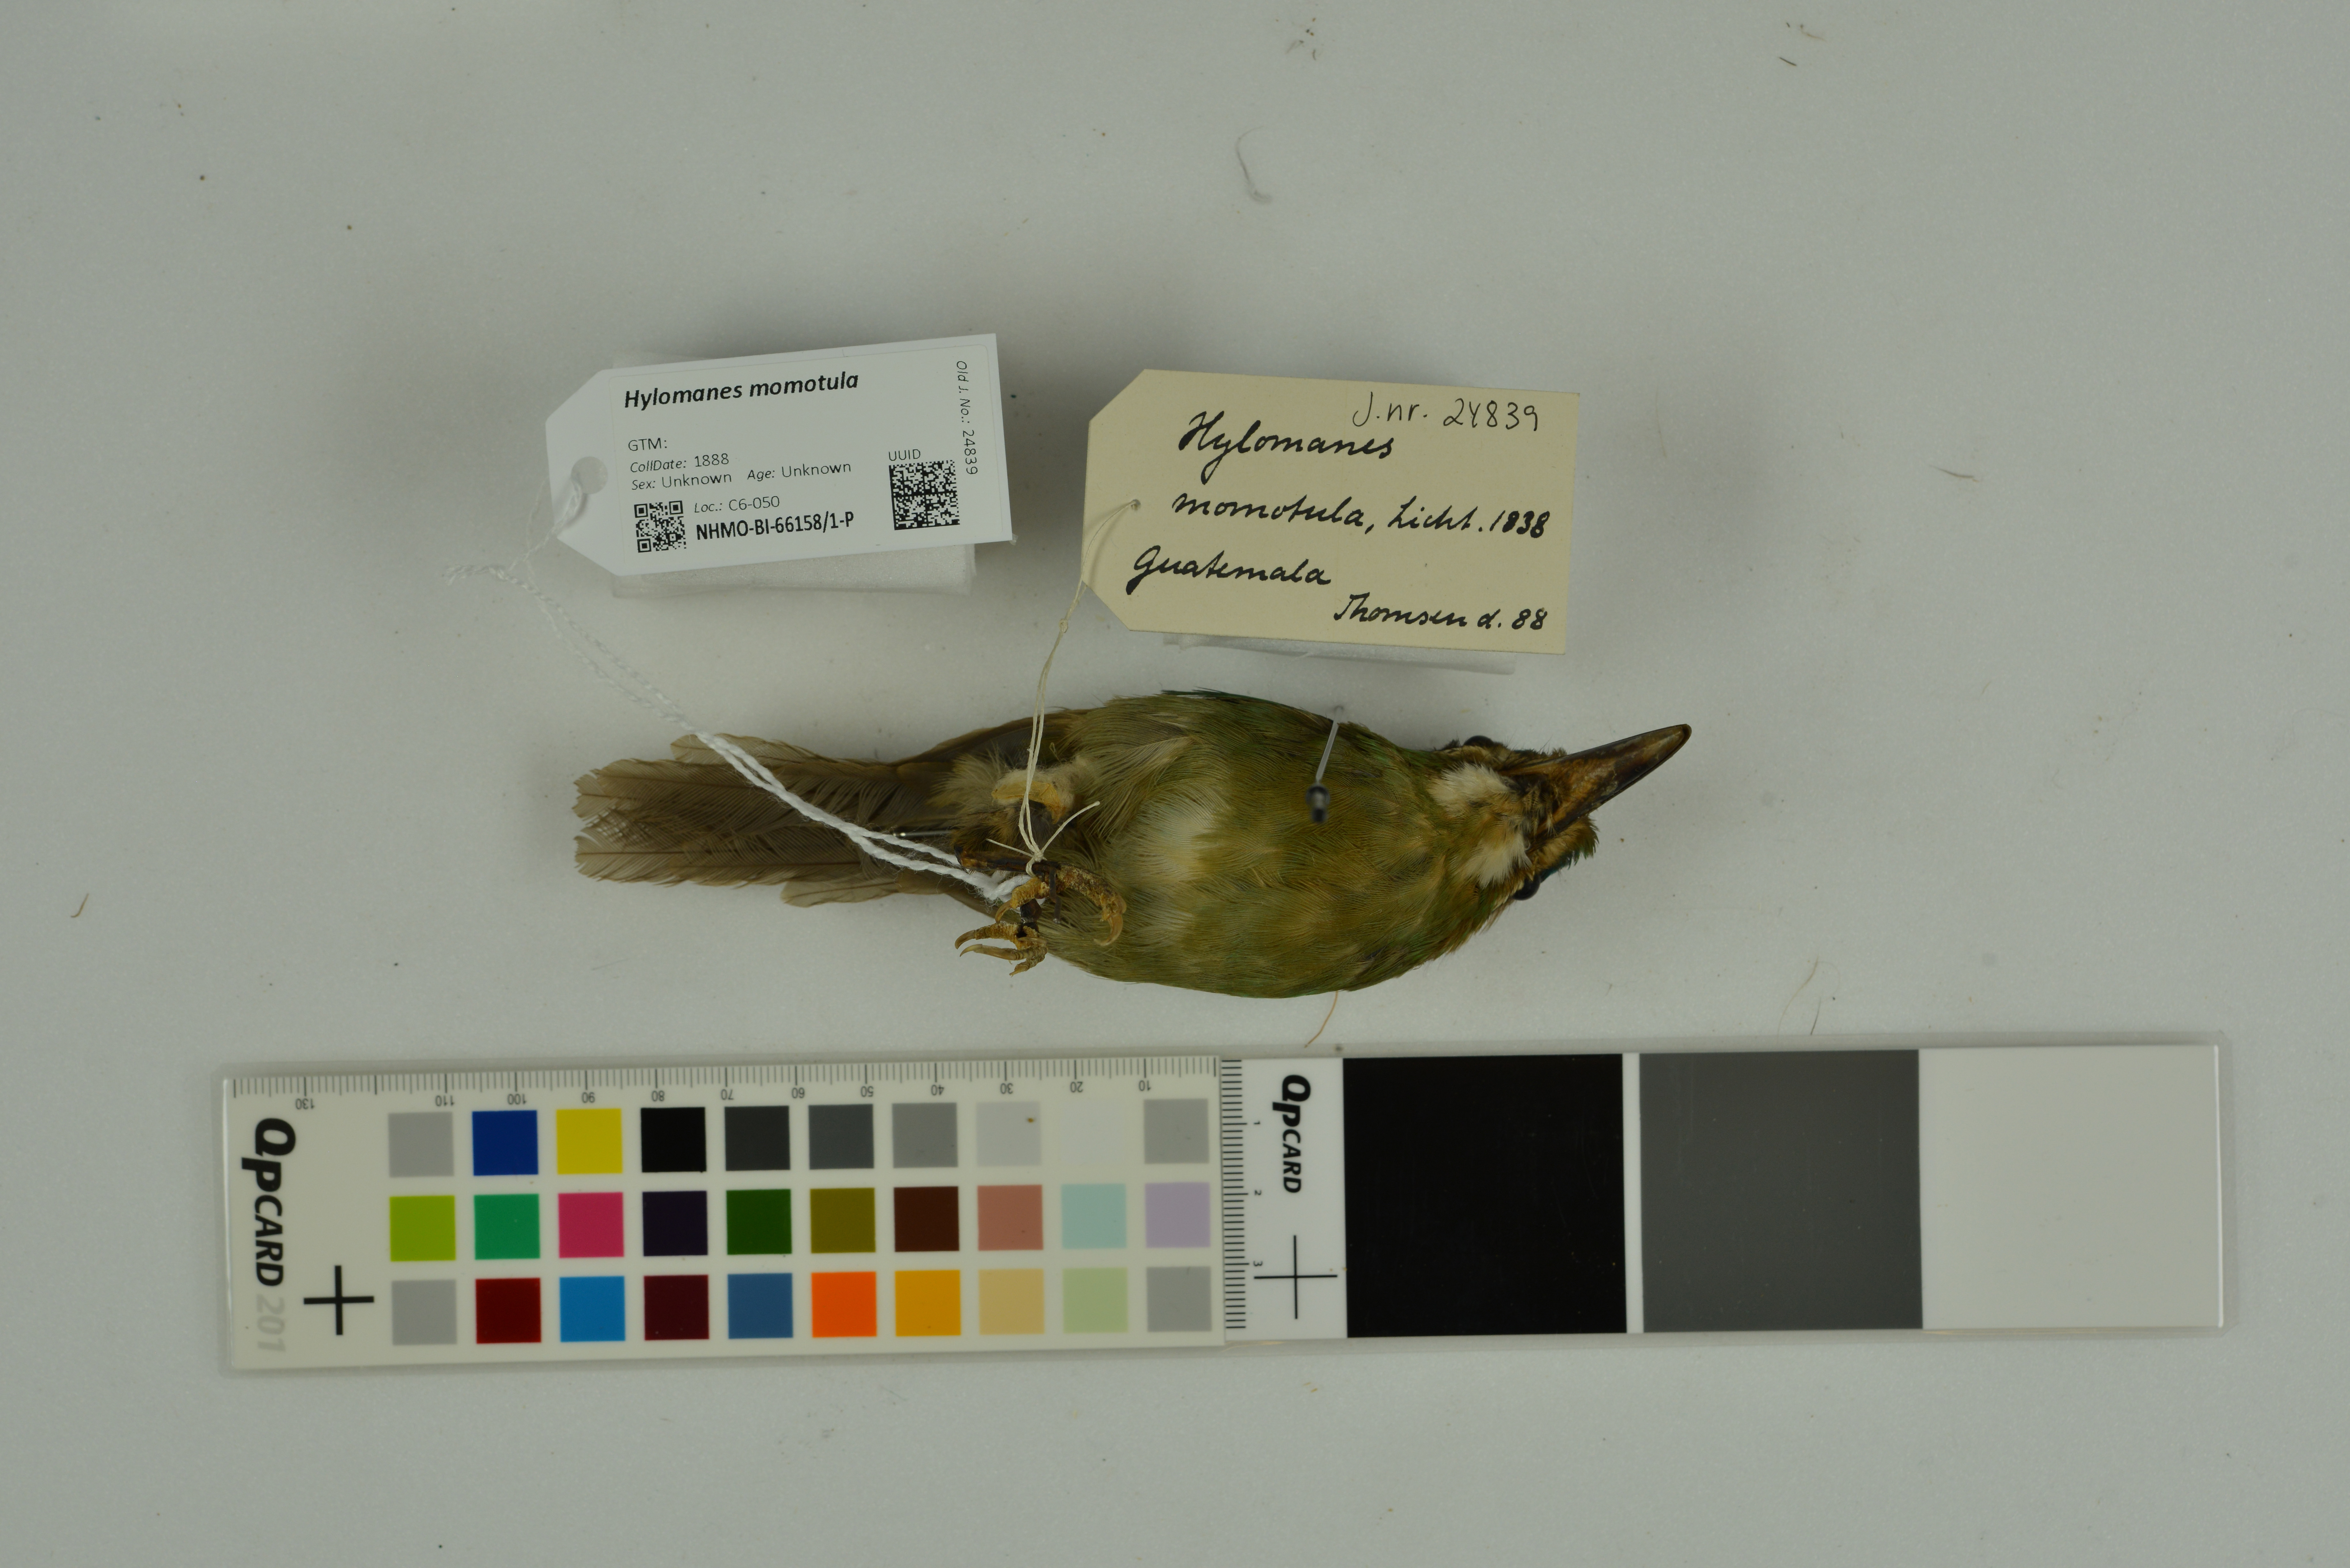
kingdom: Animalia
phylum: Chordata
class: Aves
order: Coraciiformes
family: Momotidae
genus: Hylomanes
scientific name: Hylomanes momotula
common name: Tody motmot
